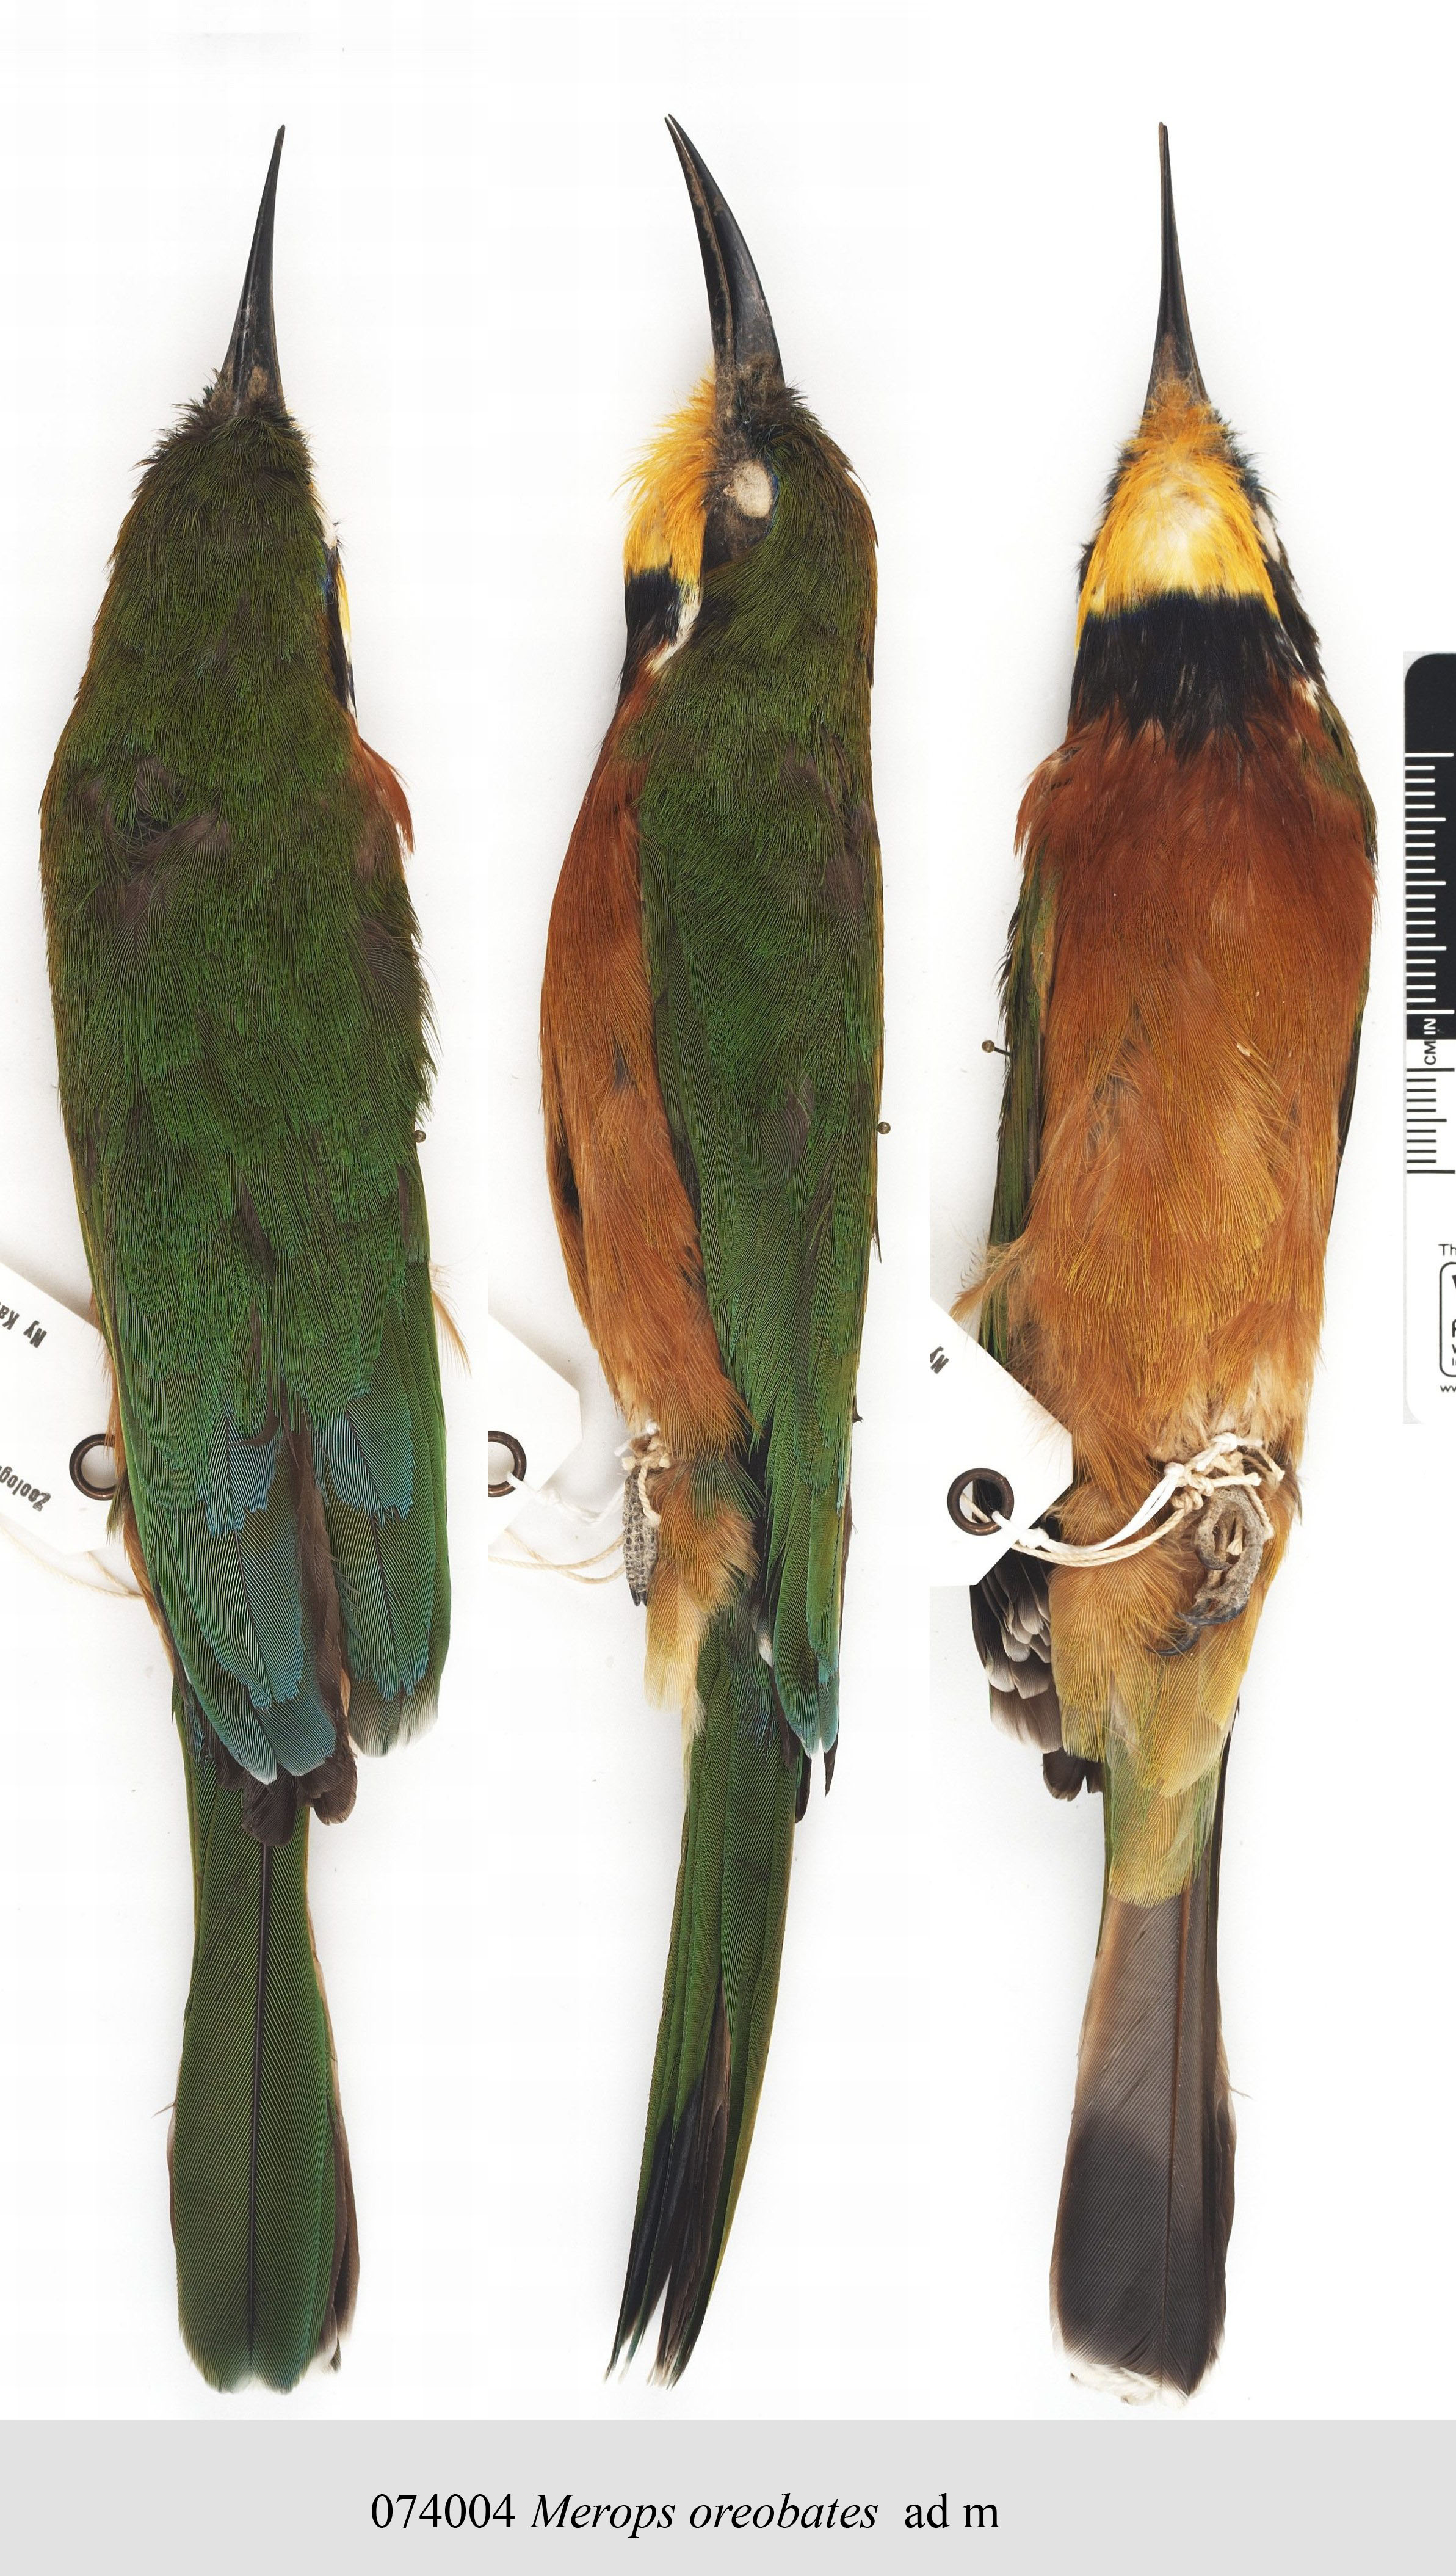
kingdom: Animalia
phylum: Chordata
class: Aves
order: Coraciiformes
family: Meropidae
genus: Merops
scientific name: Merops oreobates
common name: Cinnamon-chested bee-eater
